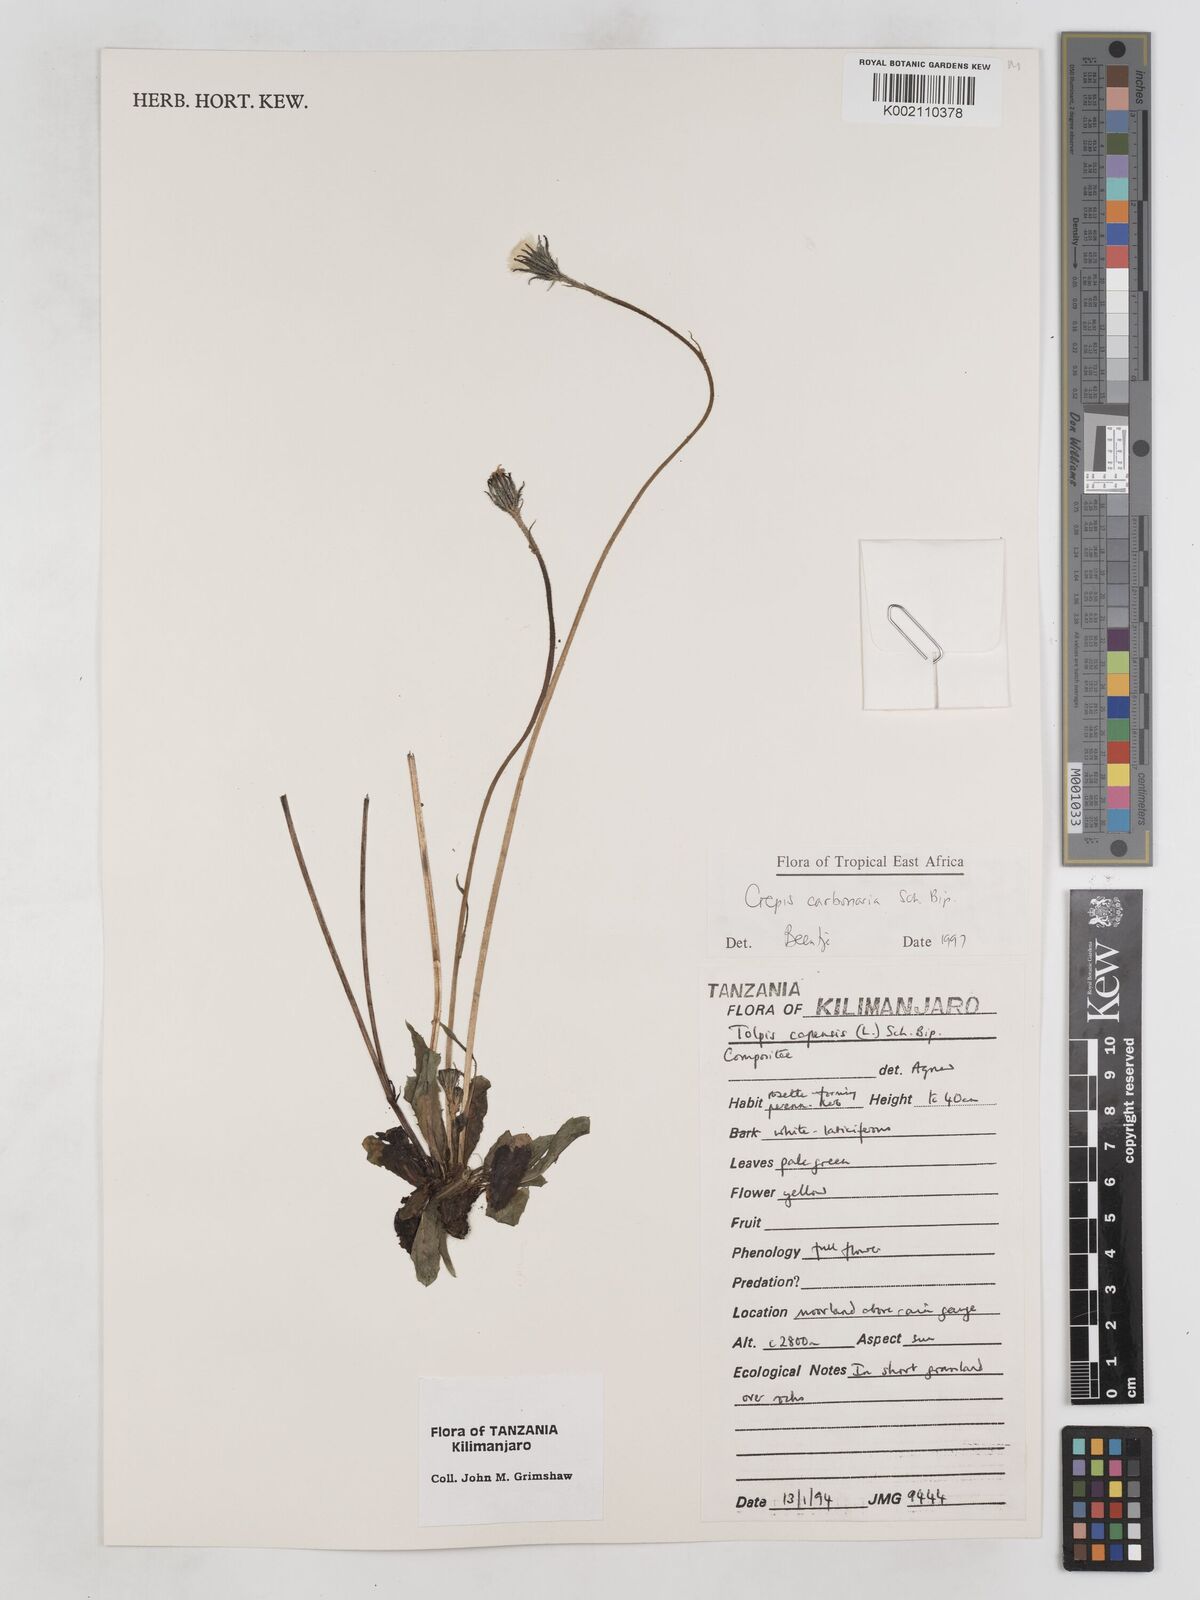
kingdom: Plantae
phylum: Tracheophyta
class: Magnoliopsida
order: Asterales
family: Asteraceae
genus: Crepis
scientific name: Crepis carbonaria
